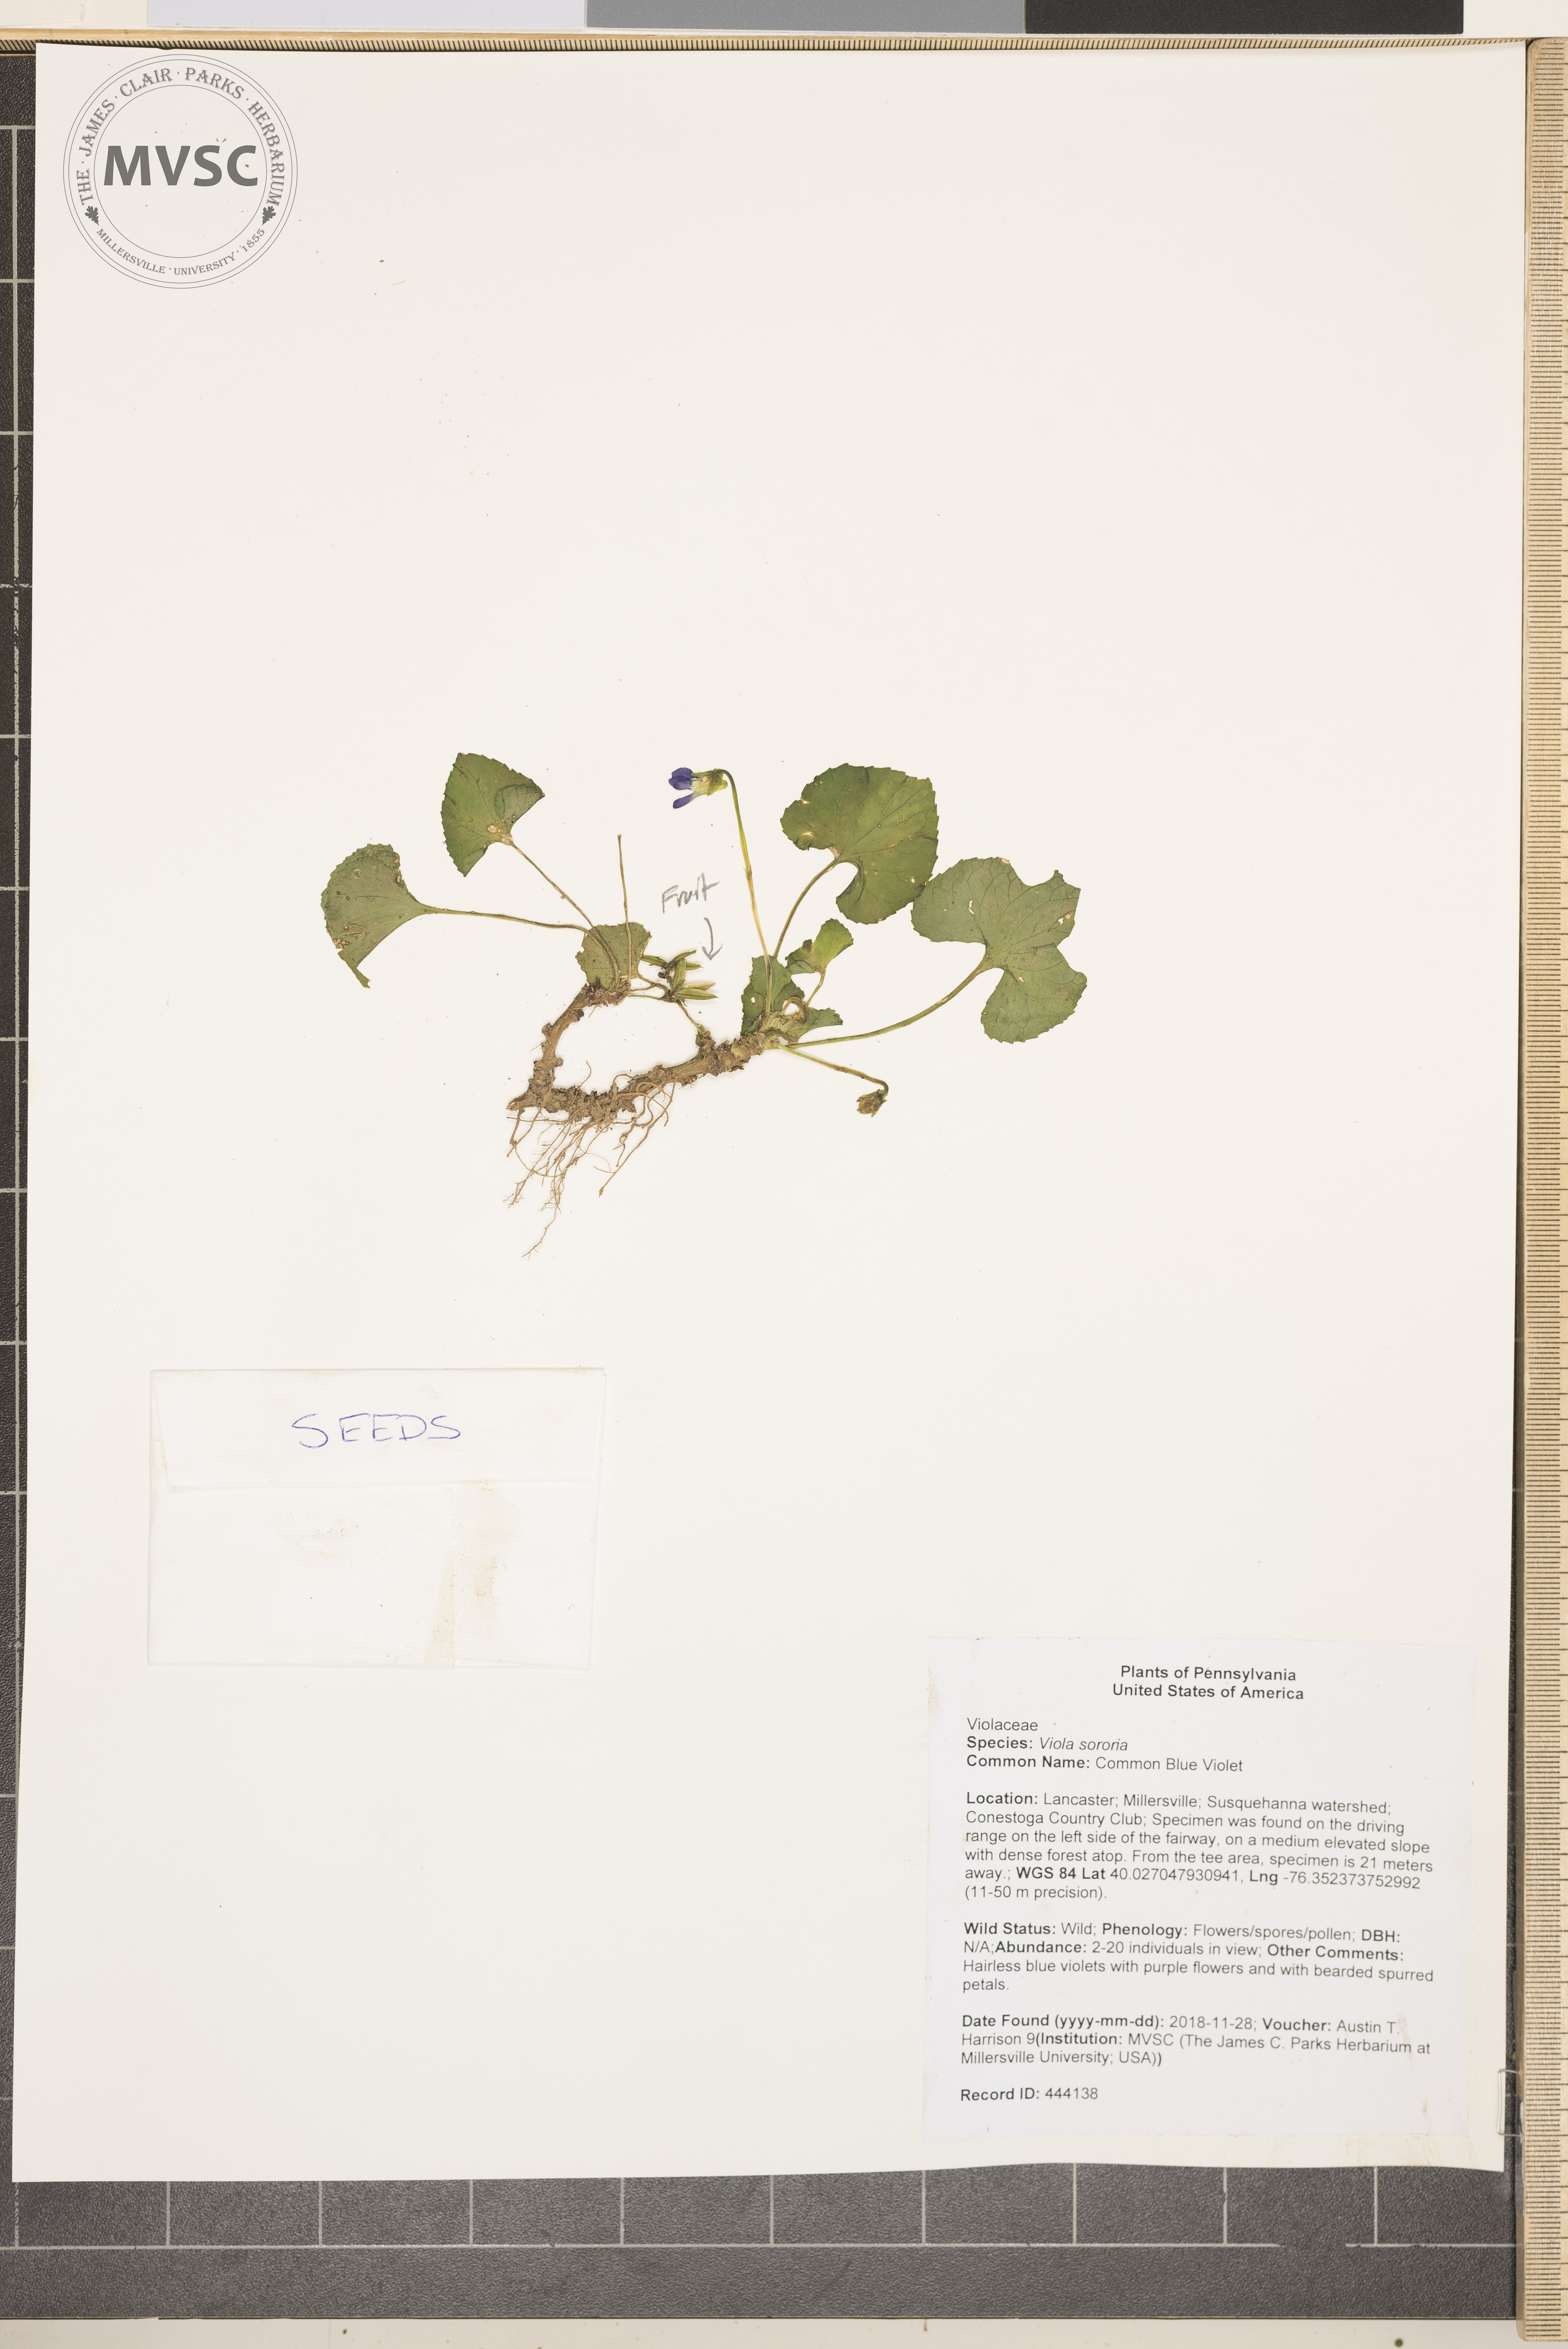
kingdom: Plantae
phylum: Tracheophyta
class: Magnoliopsida
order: Malpighiales
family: Violaceae
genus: Viola
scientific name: Viola sororia
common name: Common Blue Violet
